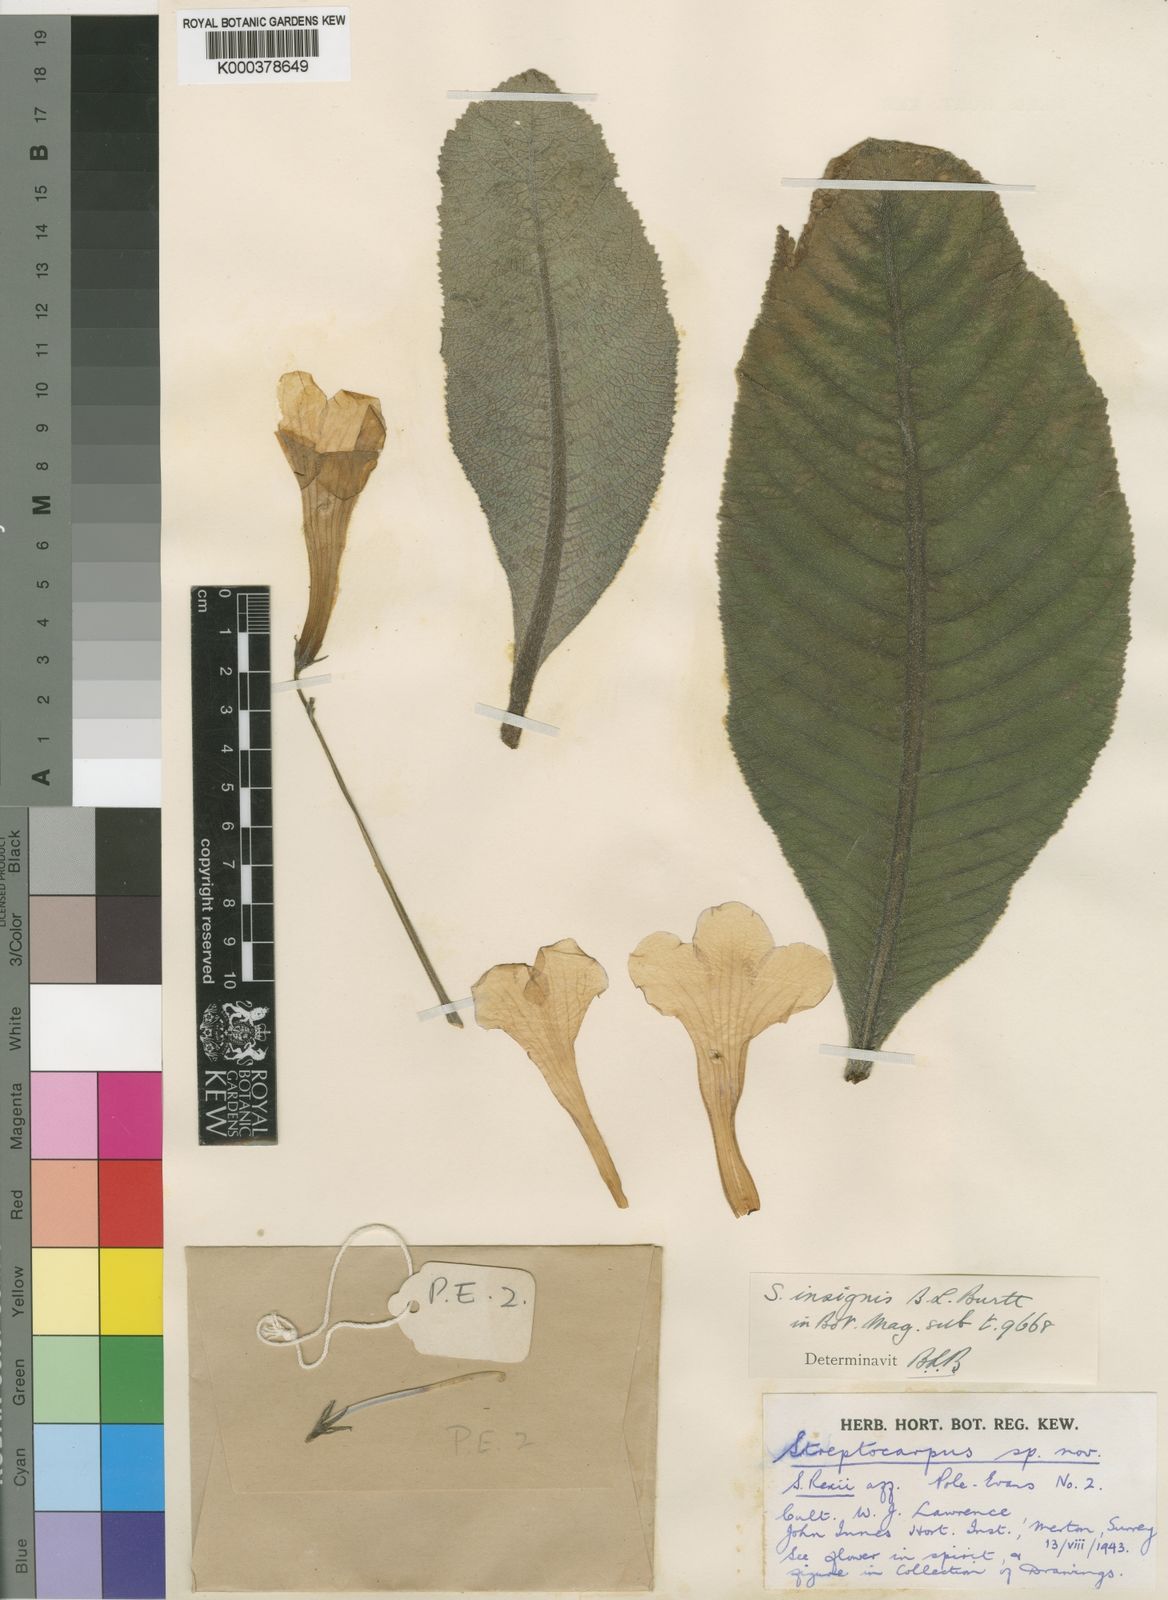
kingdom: Plantae
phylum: Tracheophyta
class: Magnoliopsida
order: Lamiales
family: Gesneriaceae
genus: Streptocarpus
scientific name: Streptocarpus primuliflorus
